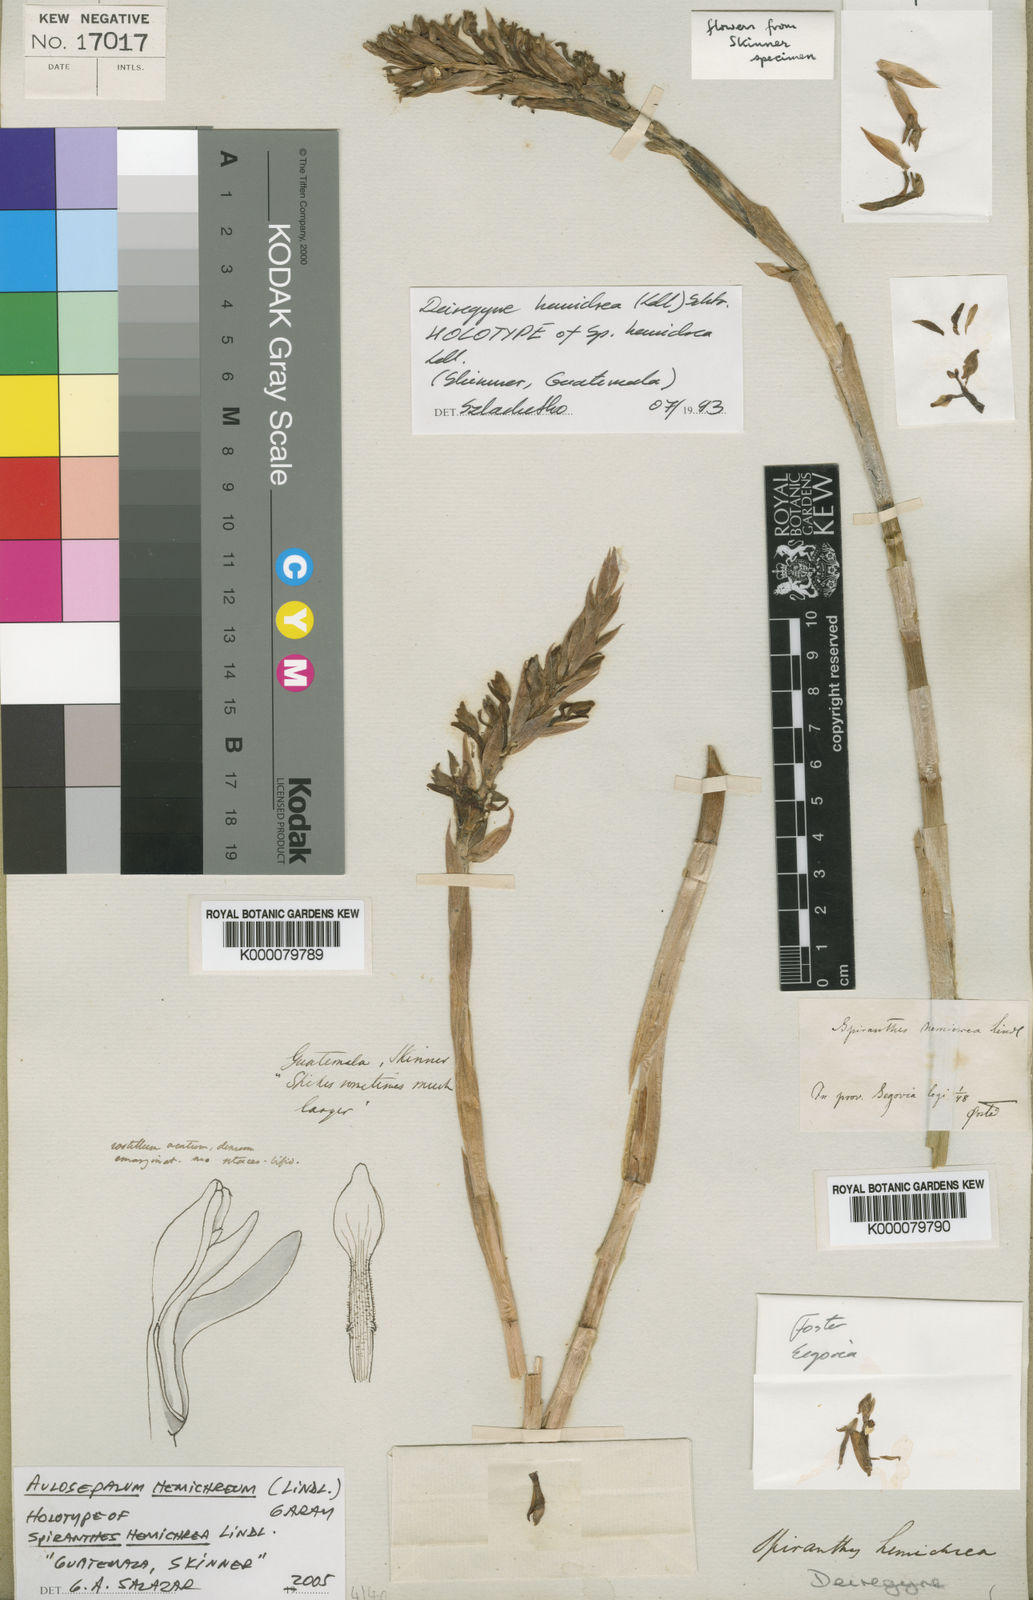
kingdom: Plantae
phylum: Tracheophyta
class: Liliopsida
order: Asparagales
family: Orchidaceae
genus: Aulosepalum
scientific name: Aulosepalum
